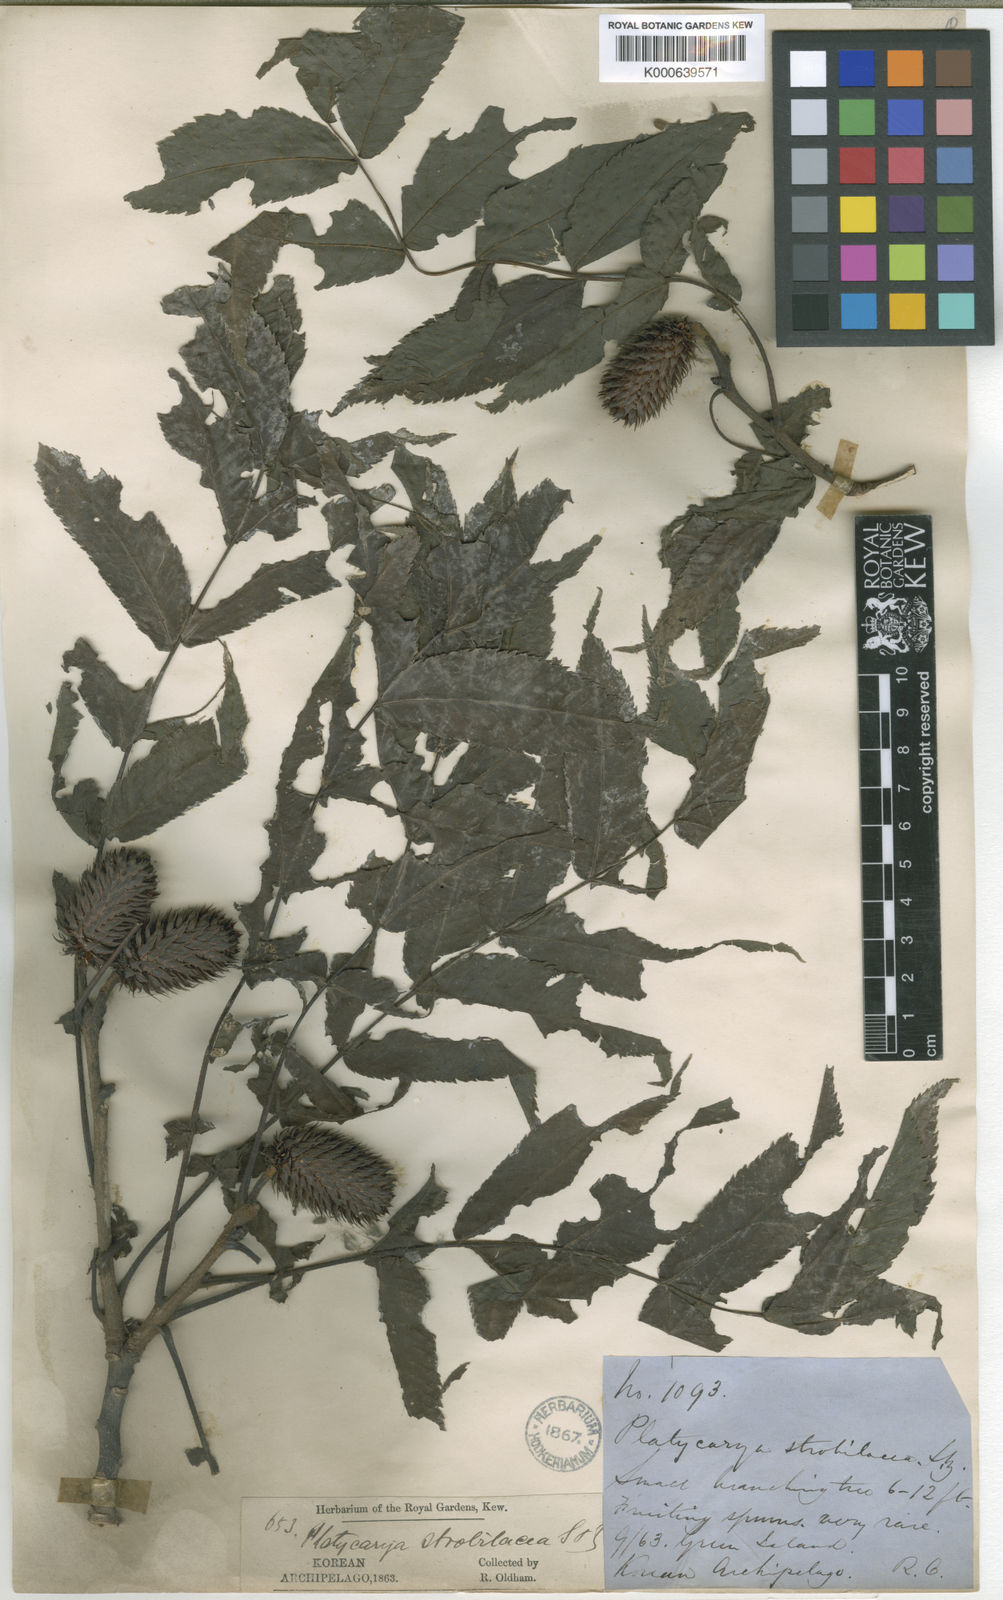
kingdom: Plantae
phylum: Tracheophyta
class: Magnoliopsida
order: Fagales
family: Juglandaceae
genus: Platycarya
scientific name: Platycarya strobilacea
